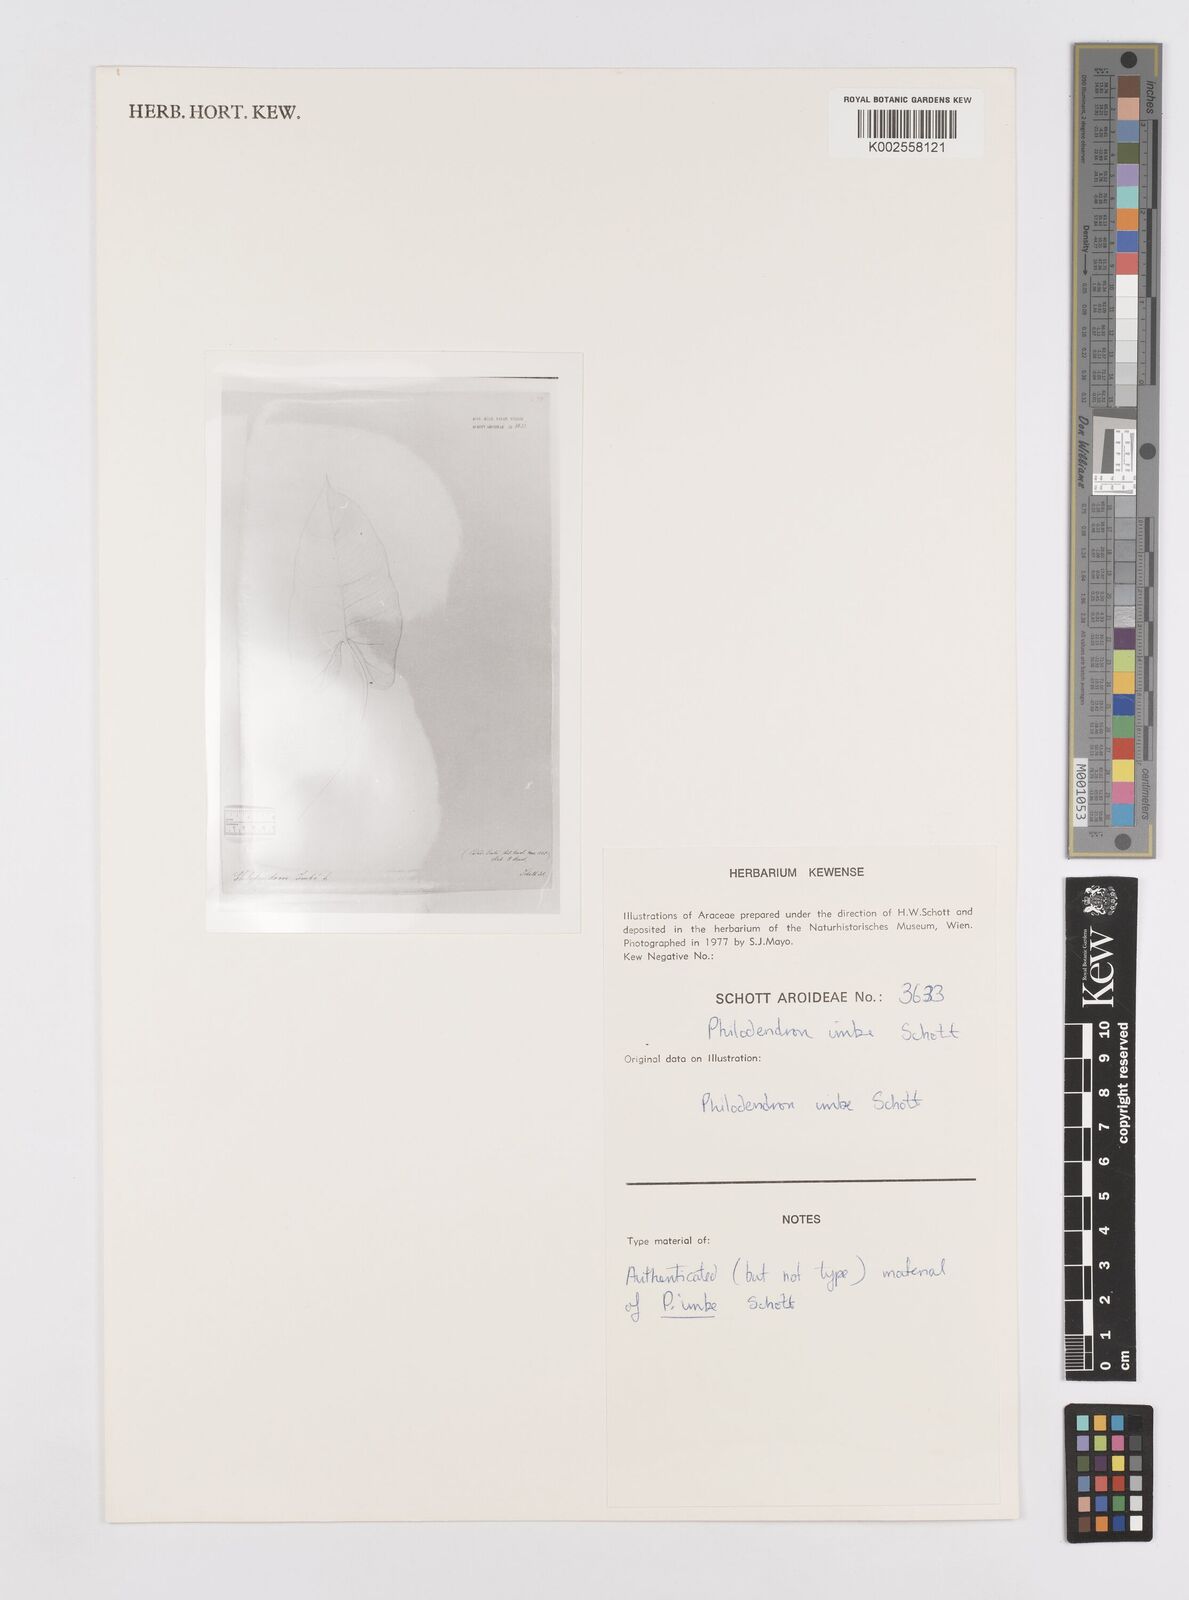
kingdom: Plantae
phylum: Tracheophyta
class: Liliopsida
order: Alismatales
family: Araceae
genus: Philodendron
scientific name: Philodendron imbe
